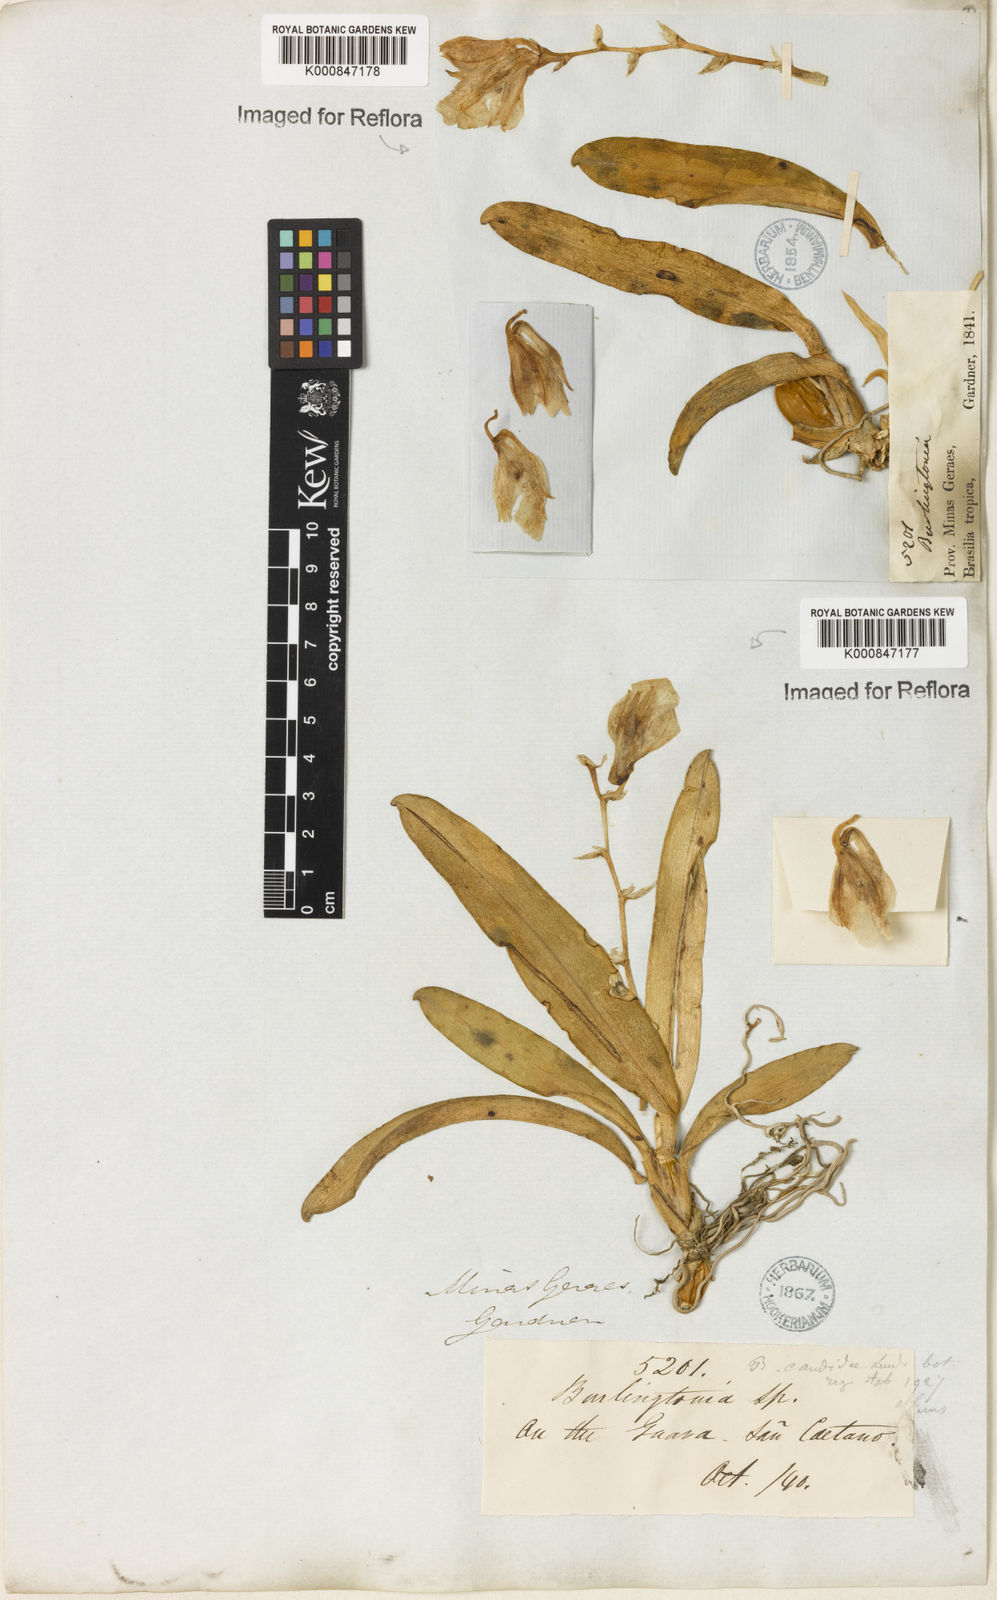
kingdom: Plantae
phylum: Tracheophyta
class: Liliopsida
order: Asparagales
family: Orchidaceae
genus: Rodriguezia
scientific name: Rodriguezia candida
